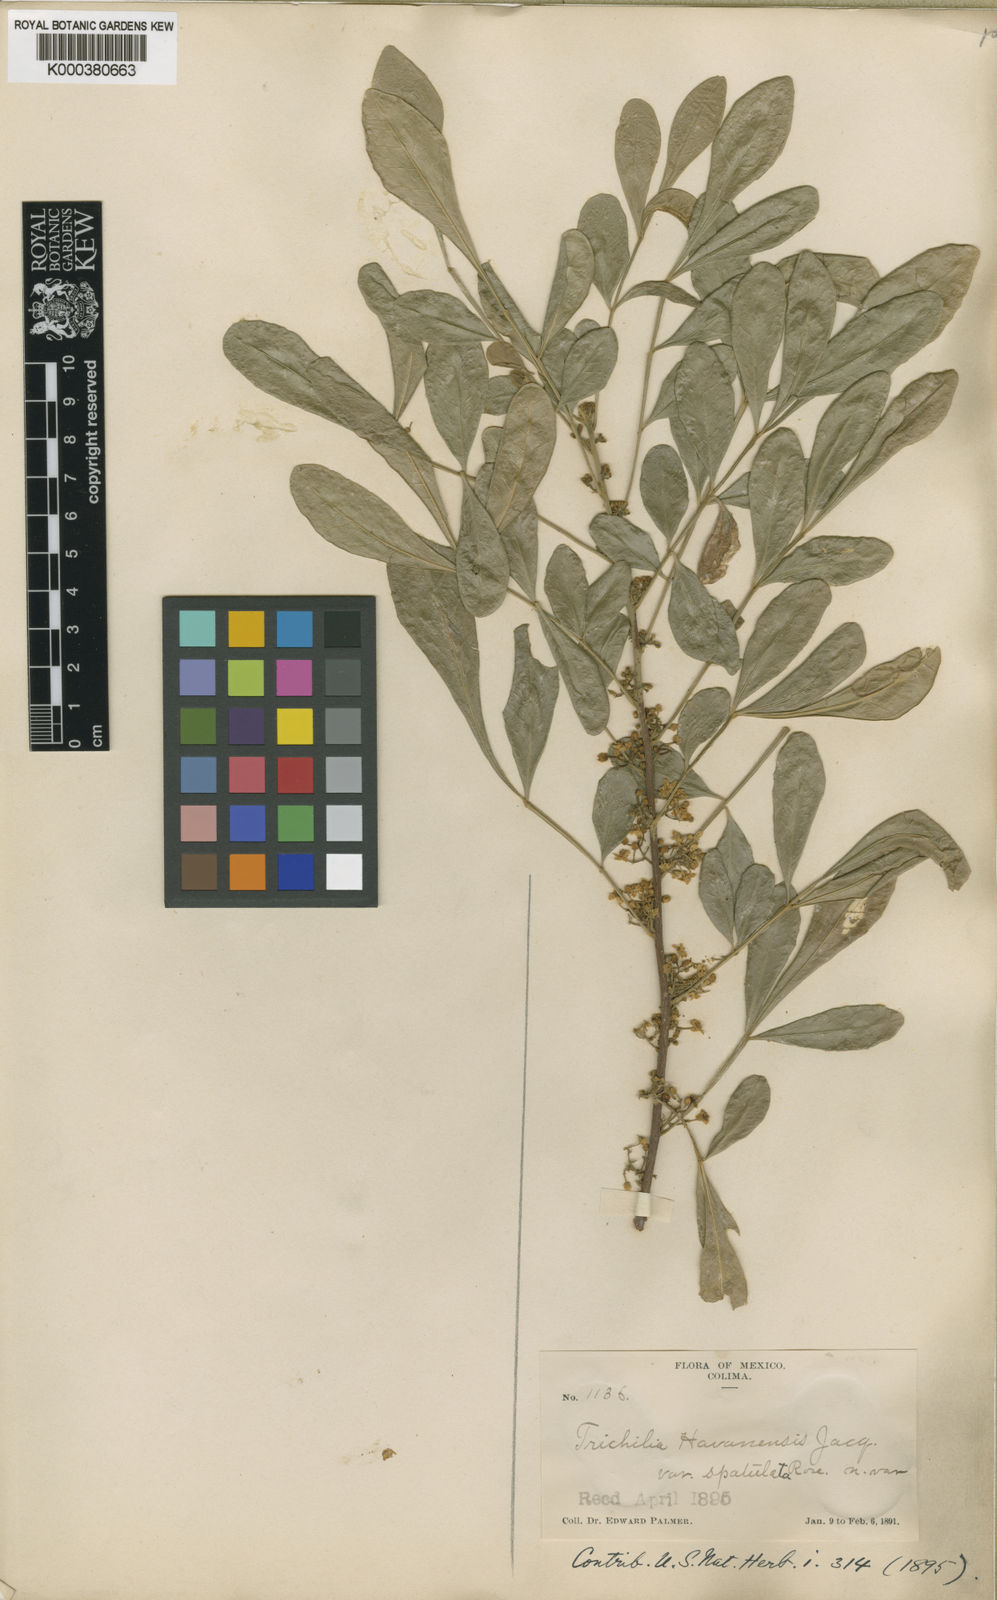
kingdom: Plantae
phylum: Tracheophyta
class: Magnoliopsida
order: Sapindales
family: Meliaceae
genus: Trichilia
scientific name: Trichilia havanensis
